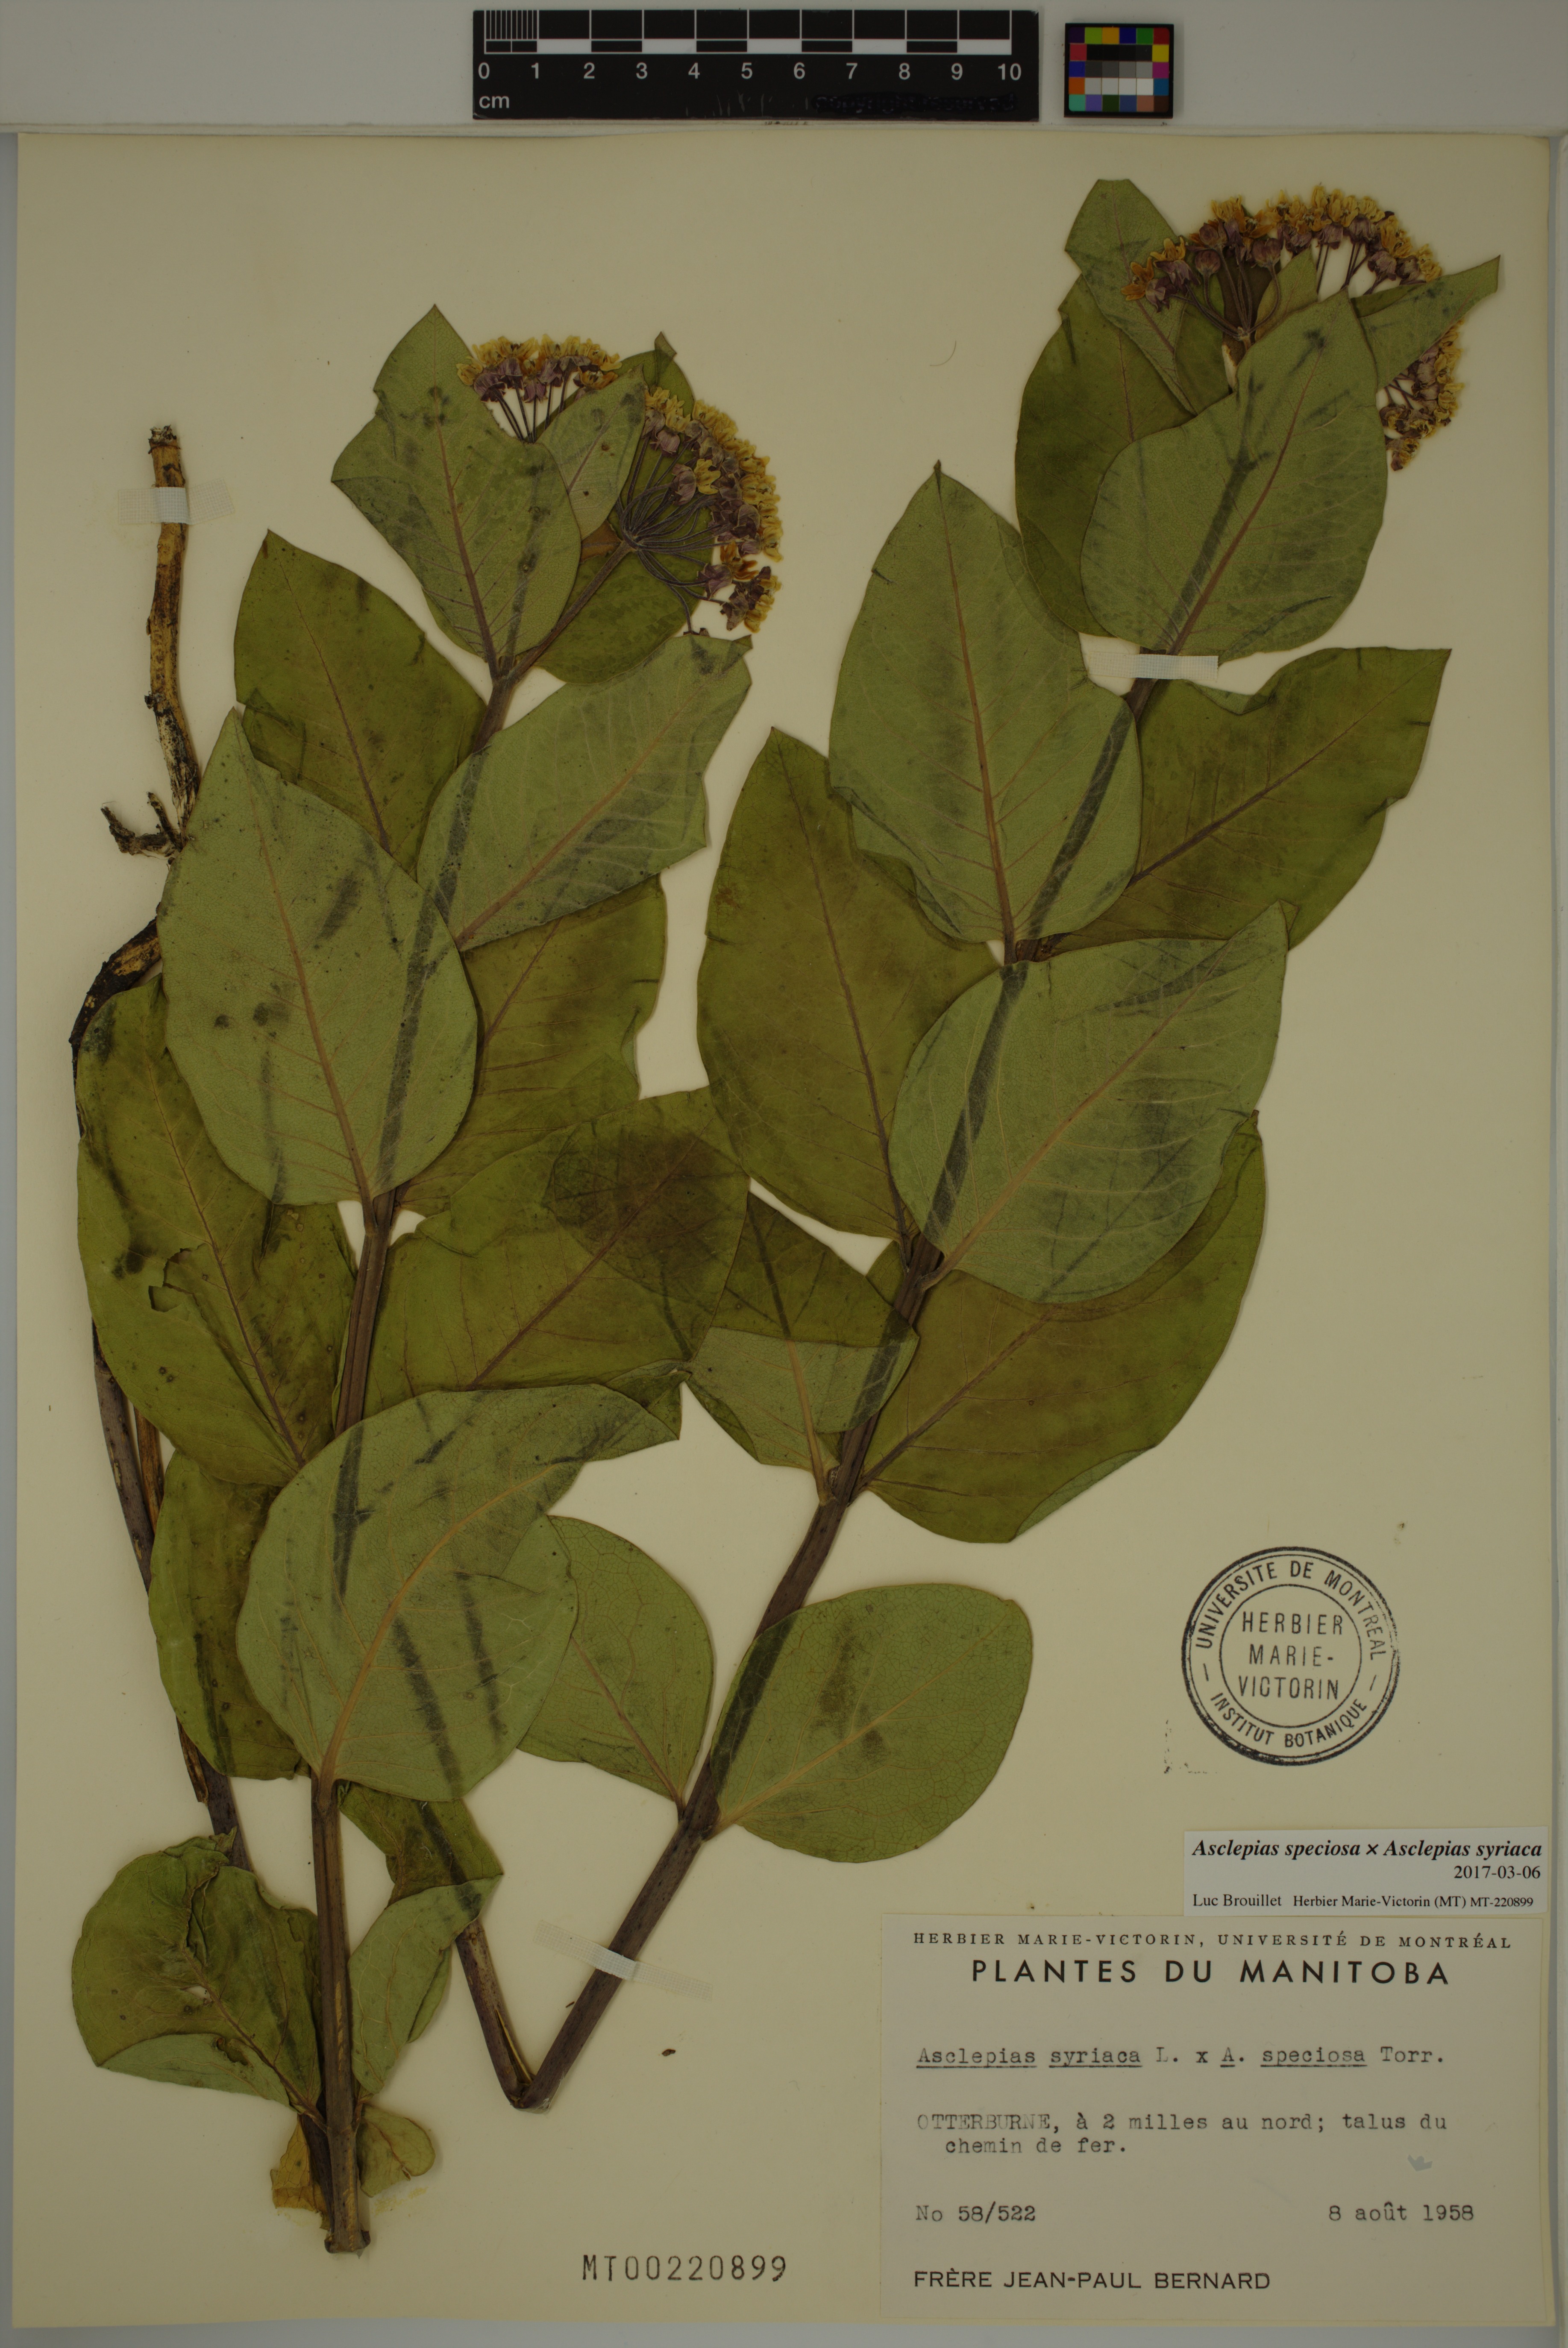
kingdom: Plantae
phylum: Tracheophyta
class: Magnoliopsida
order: Gentianales
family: Apocynaceae
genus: Asclepias
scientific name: Asclepias speciosa
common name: Showy milkweed
